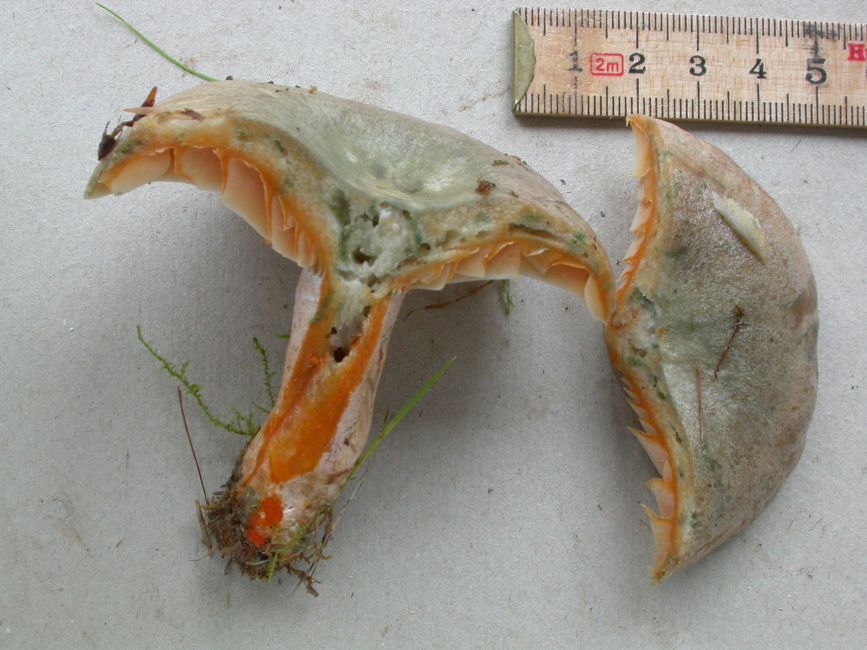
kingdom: Fungi
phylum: Basidiomycota
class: Agaricomycetes
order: Russulales
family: Russulaceae
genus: Lactarius
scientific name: Lactarius quieticolor
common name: tvefarvet mælkehat
